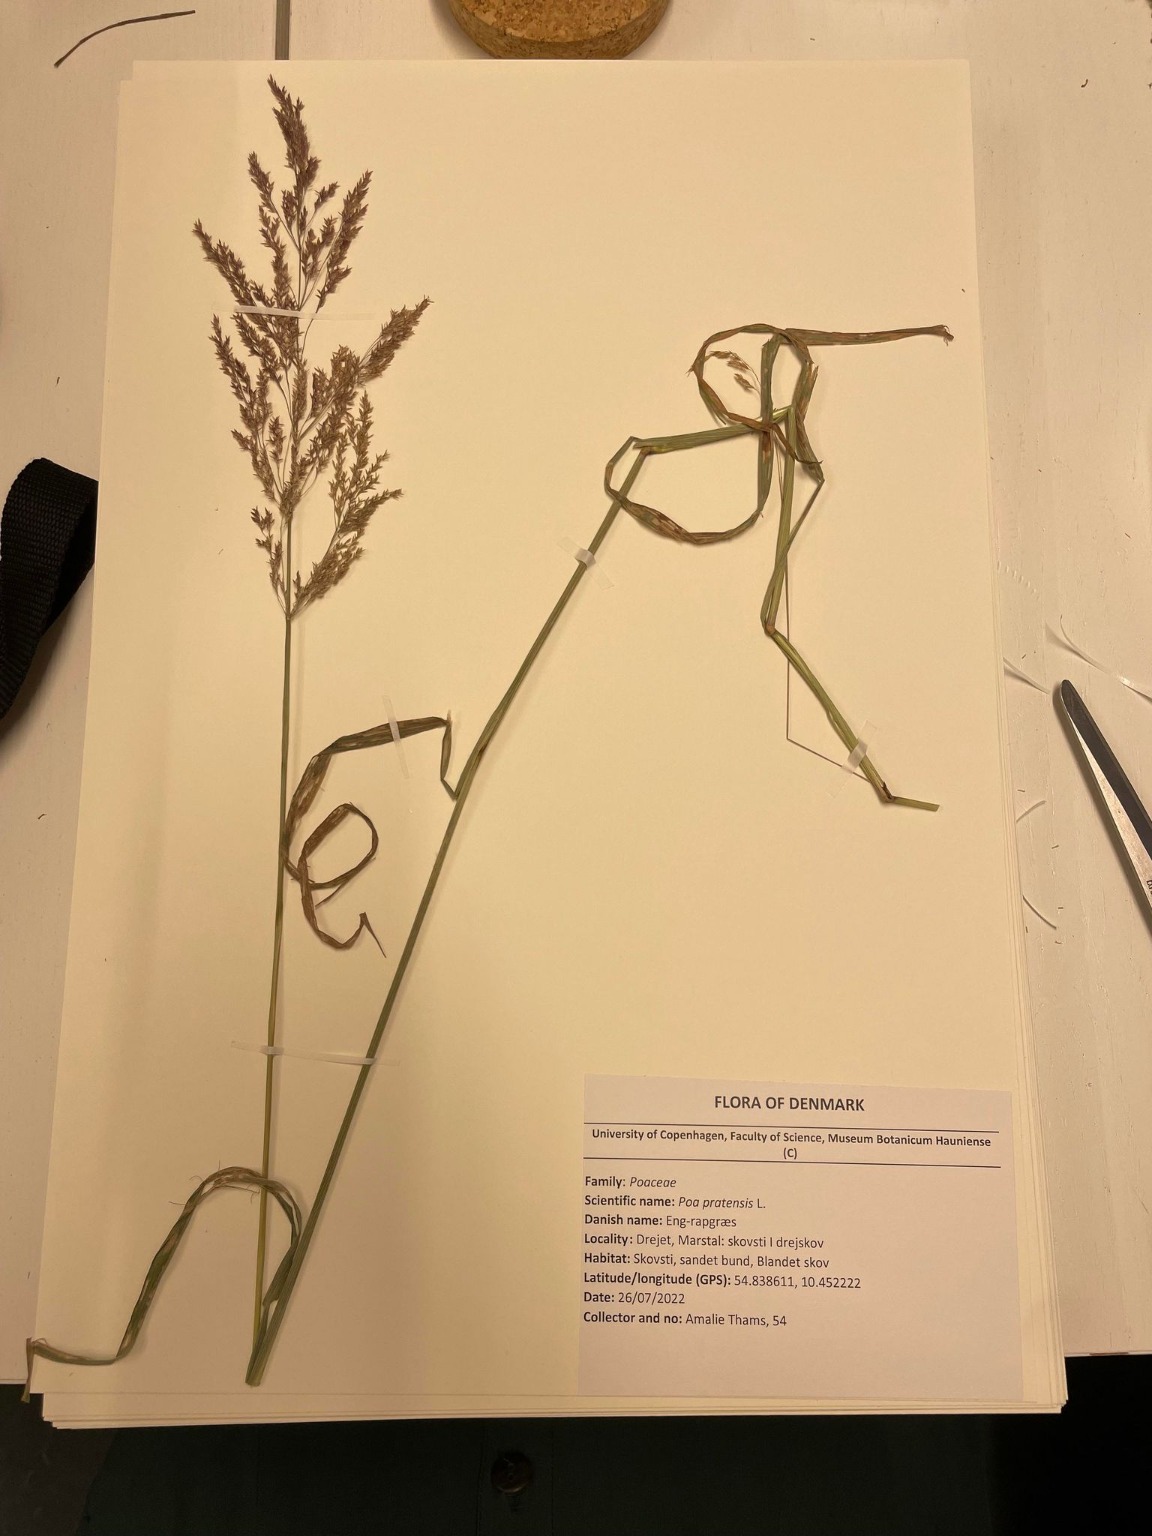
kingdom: Plantae
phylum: Tracheophyta
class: Liliopsida
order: Poales
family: Poaceae
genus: Agrostis
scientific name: Agrostis gigantea
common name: Stortoppet hvene
